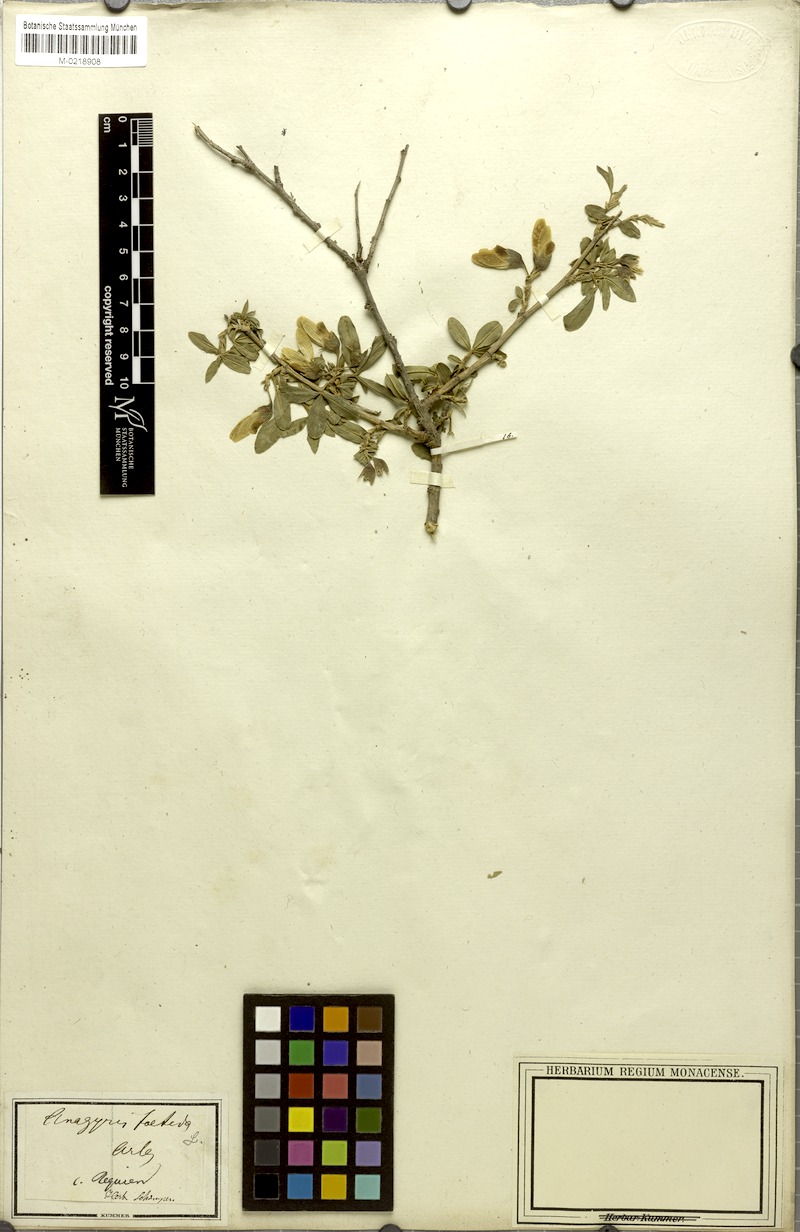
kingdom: Plantae
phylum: Tracheophyta
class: Magnoliopsida
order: Fabales
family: Fabaceae
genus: Anagyris
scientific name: Anagyris foetida
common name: Stinking bean trefoil
